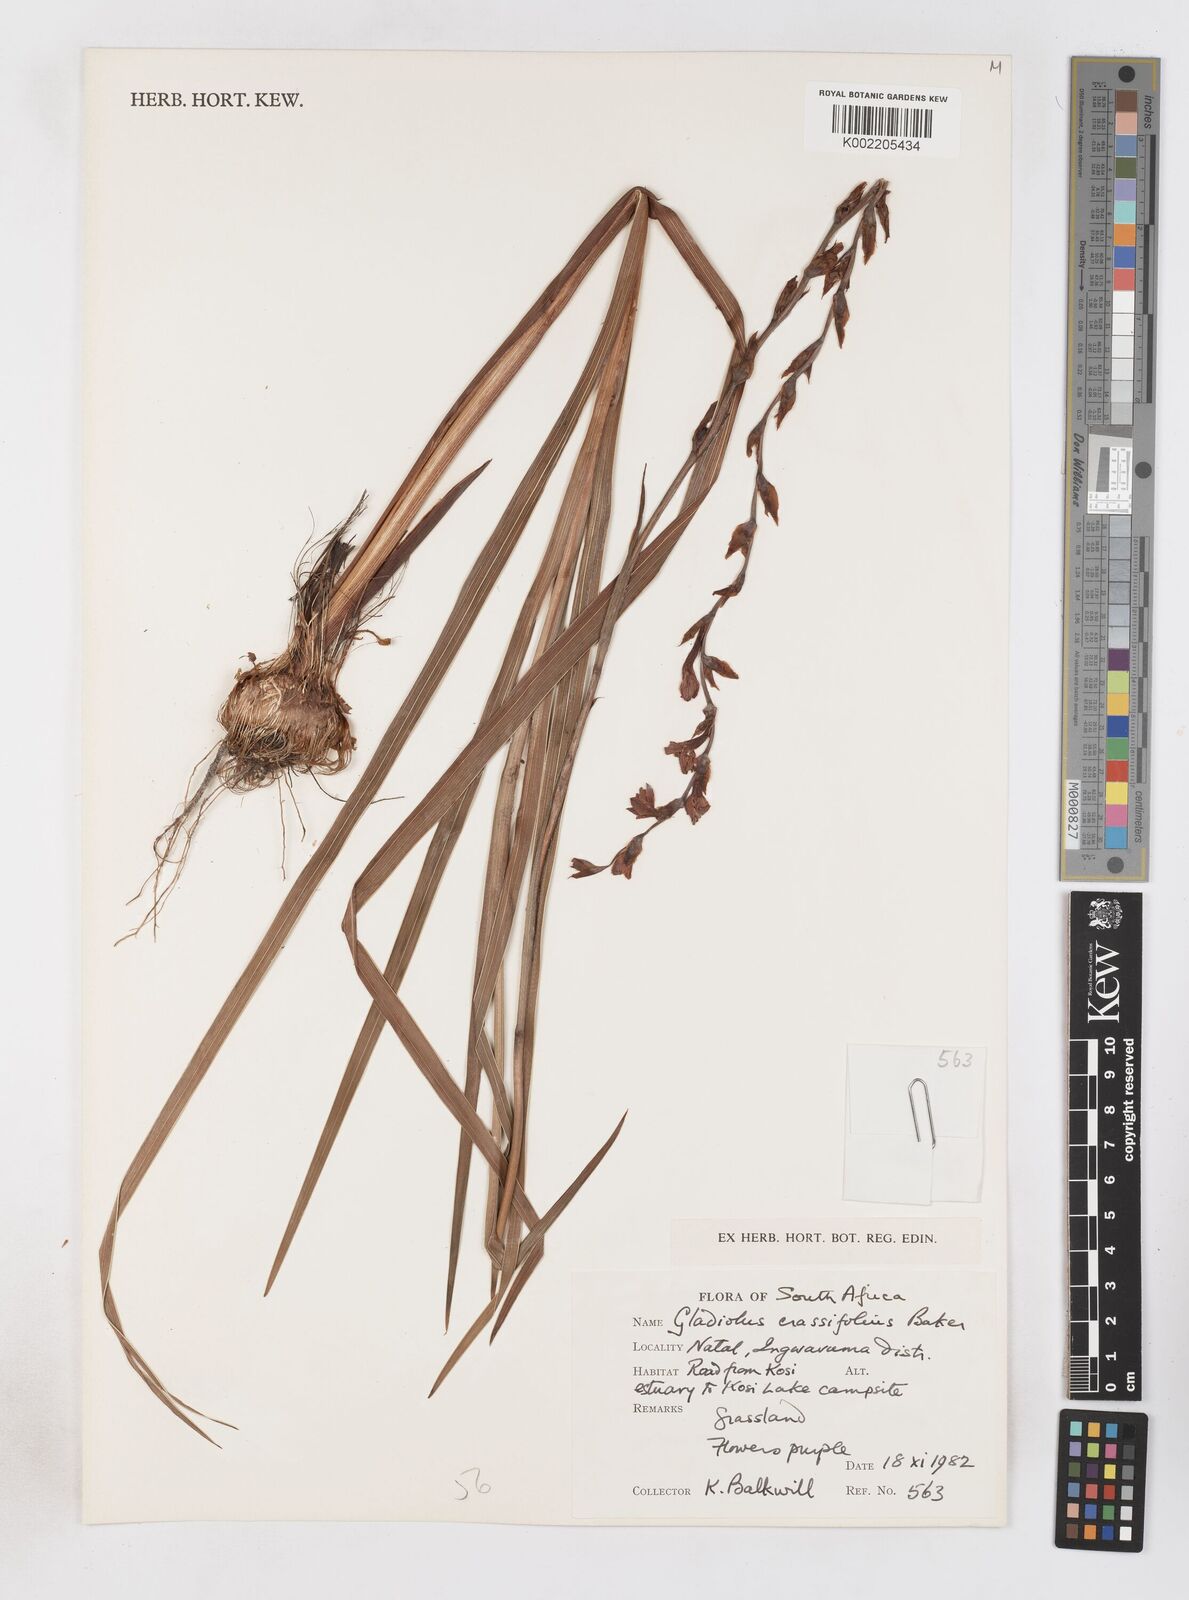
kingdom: Plantae
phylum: Tracheophyta
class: Liliopsida
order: Asparagales
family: Iridaceae
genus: Gladiolus
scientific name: Gladiolus densiflorus
